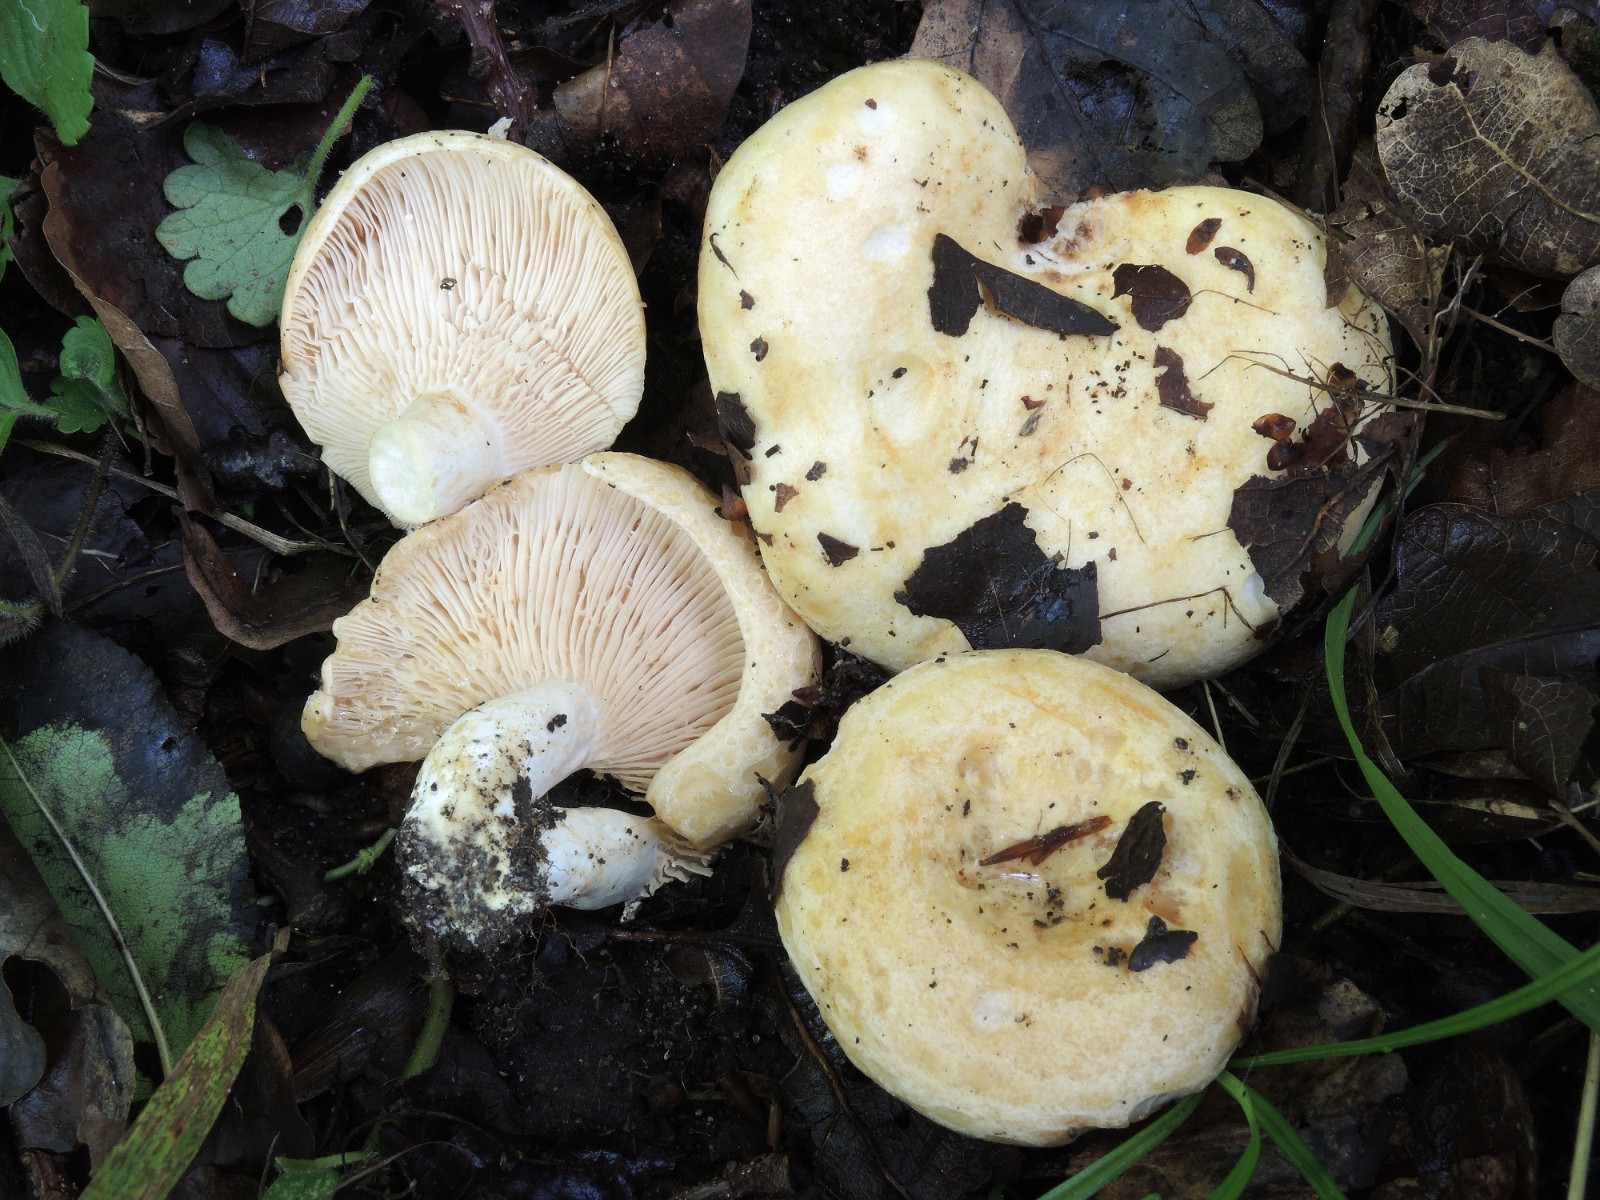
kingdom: Fungi
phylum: Basidiomycota
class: Agaricomycetes
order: Russulales
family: Russulaceae
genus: Lactarius
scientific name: Lactarius acerrimus
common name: brændende mælkehat
